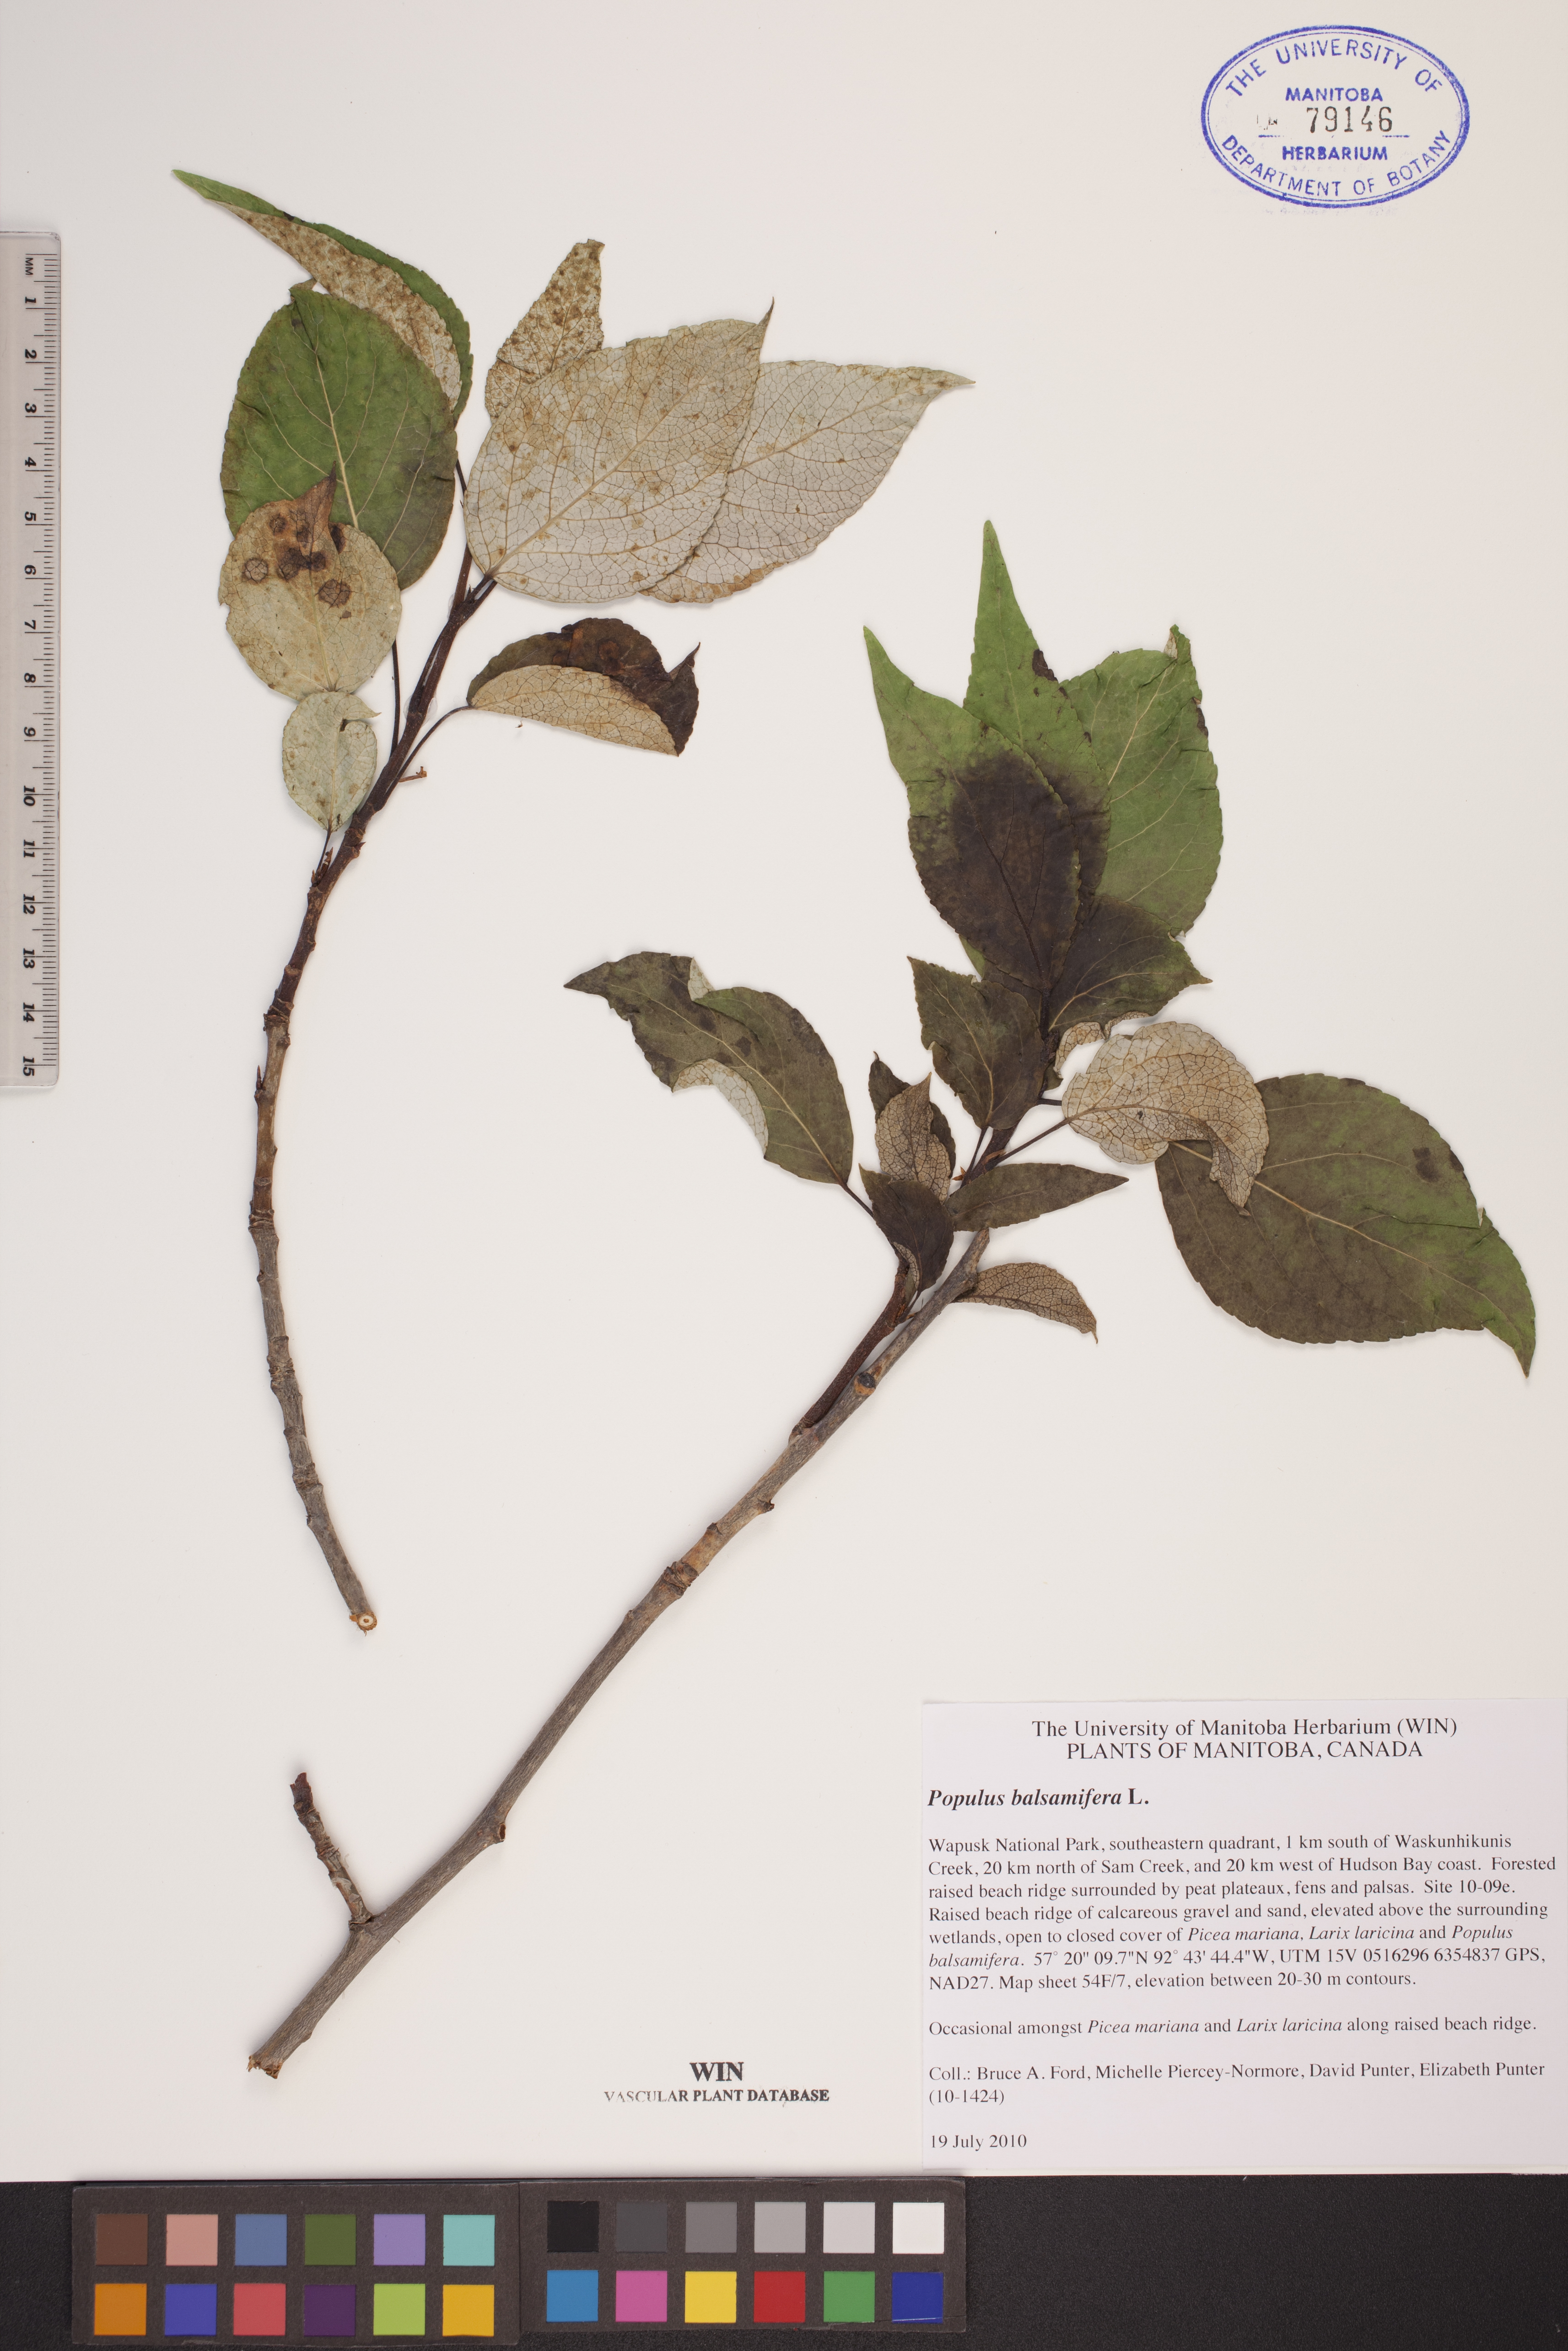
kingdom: Plantae
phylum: Tracheophyta
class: Magnoliopsida
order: Malpighiales
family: Salicaceae
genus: Populus
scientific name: Populus balsamifera
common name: Balsam poplar
